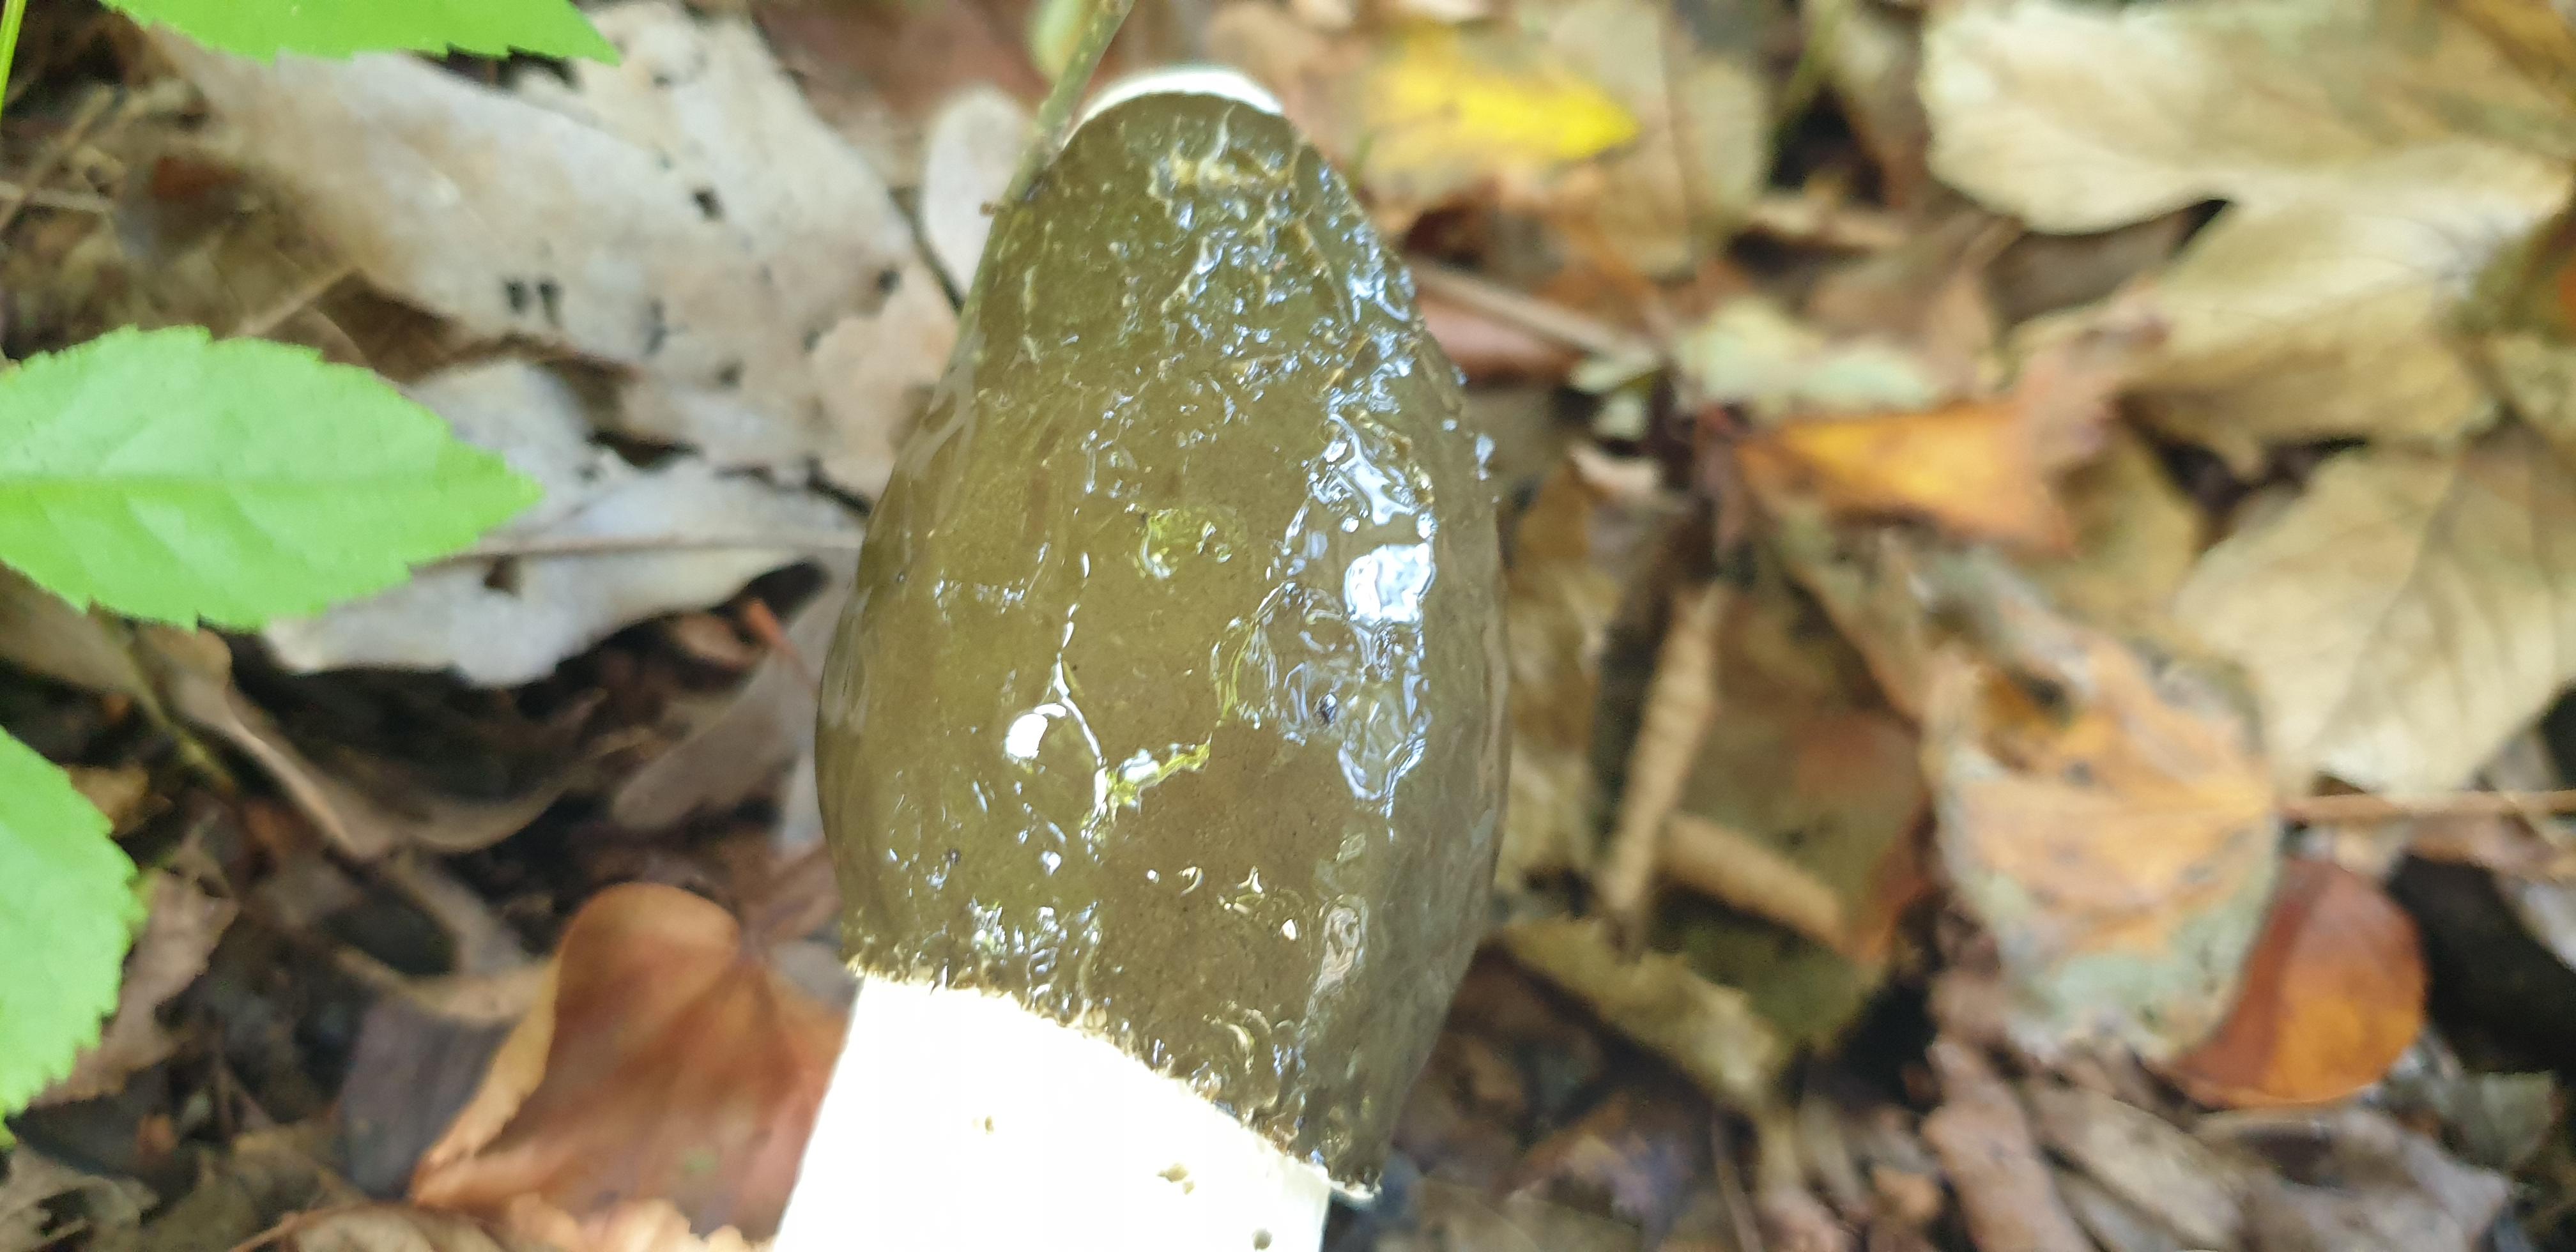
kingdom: Fungi
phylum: Basidiomycota
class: Agaricomycetes
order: Phallales
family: Phallaceae
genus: Phallus
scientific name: Phallus impudicus
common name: almindelig stinksvamp
